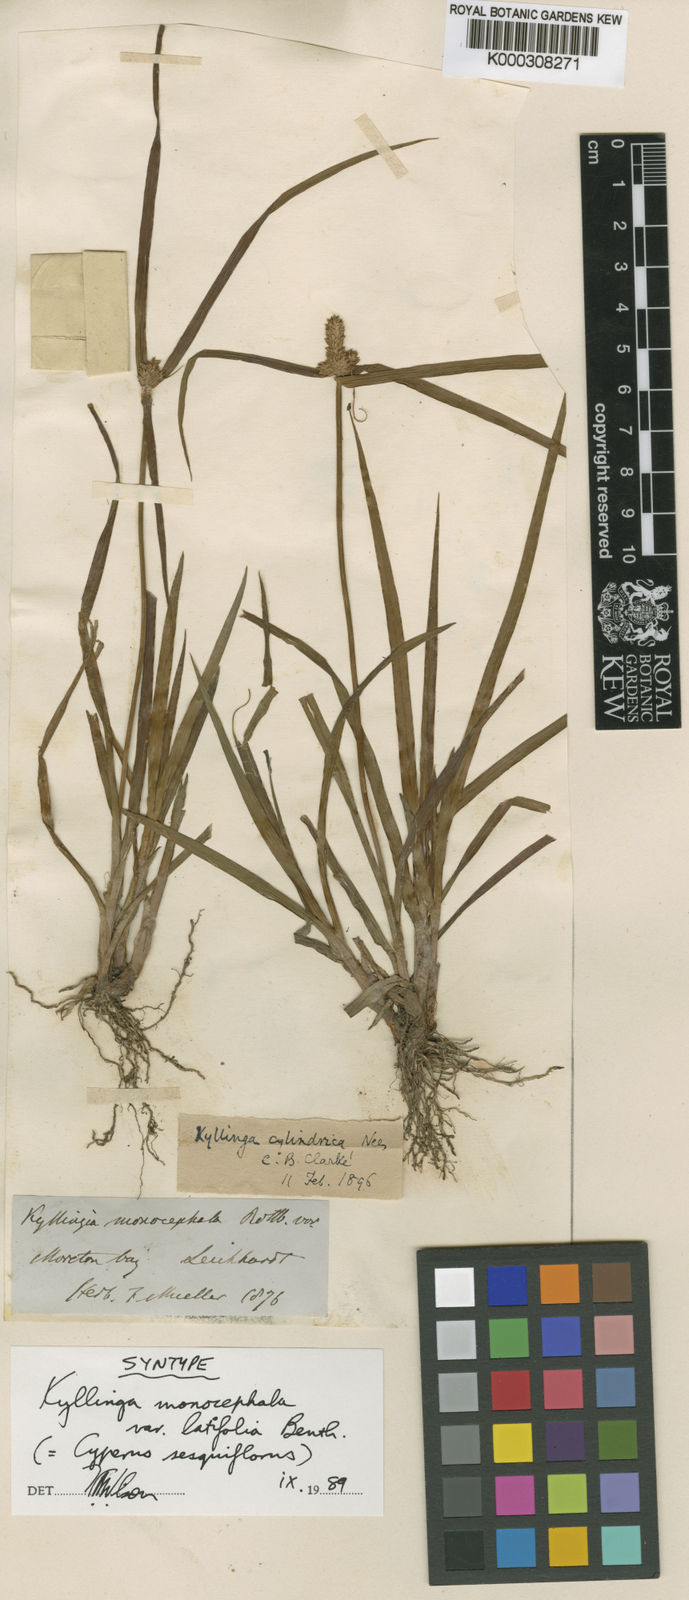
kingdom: Plantae
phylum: Tracheophyta
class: Liliopsida
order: Poales
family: Cyperaceae
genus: Cyperus
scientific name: Cyperus mindorensis
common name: Flatsedge
